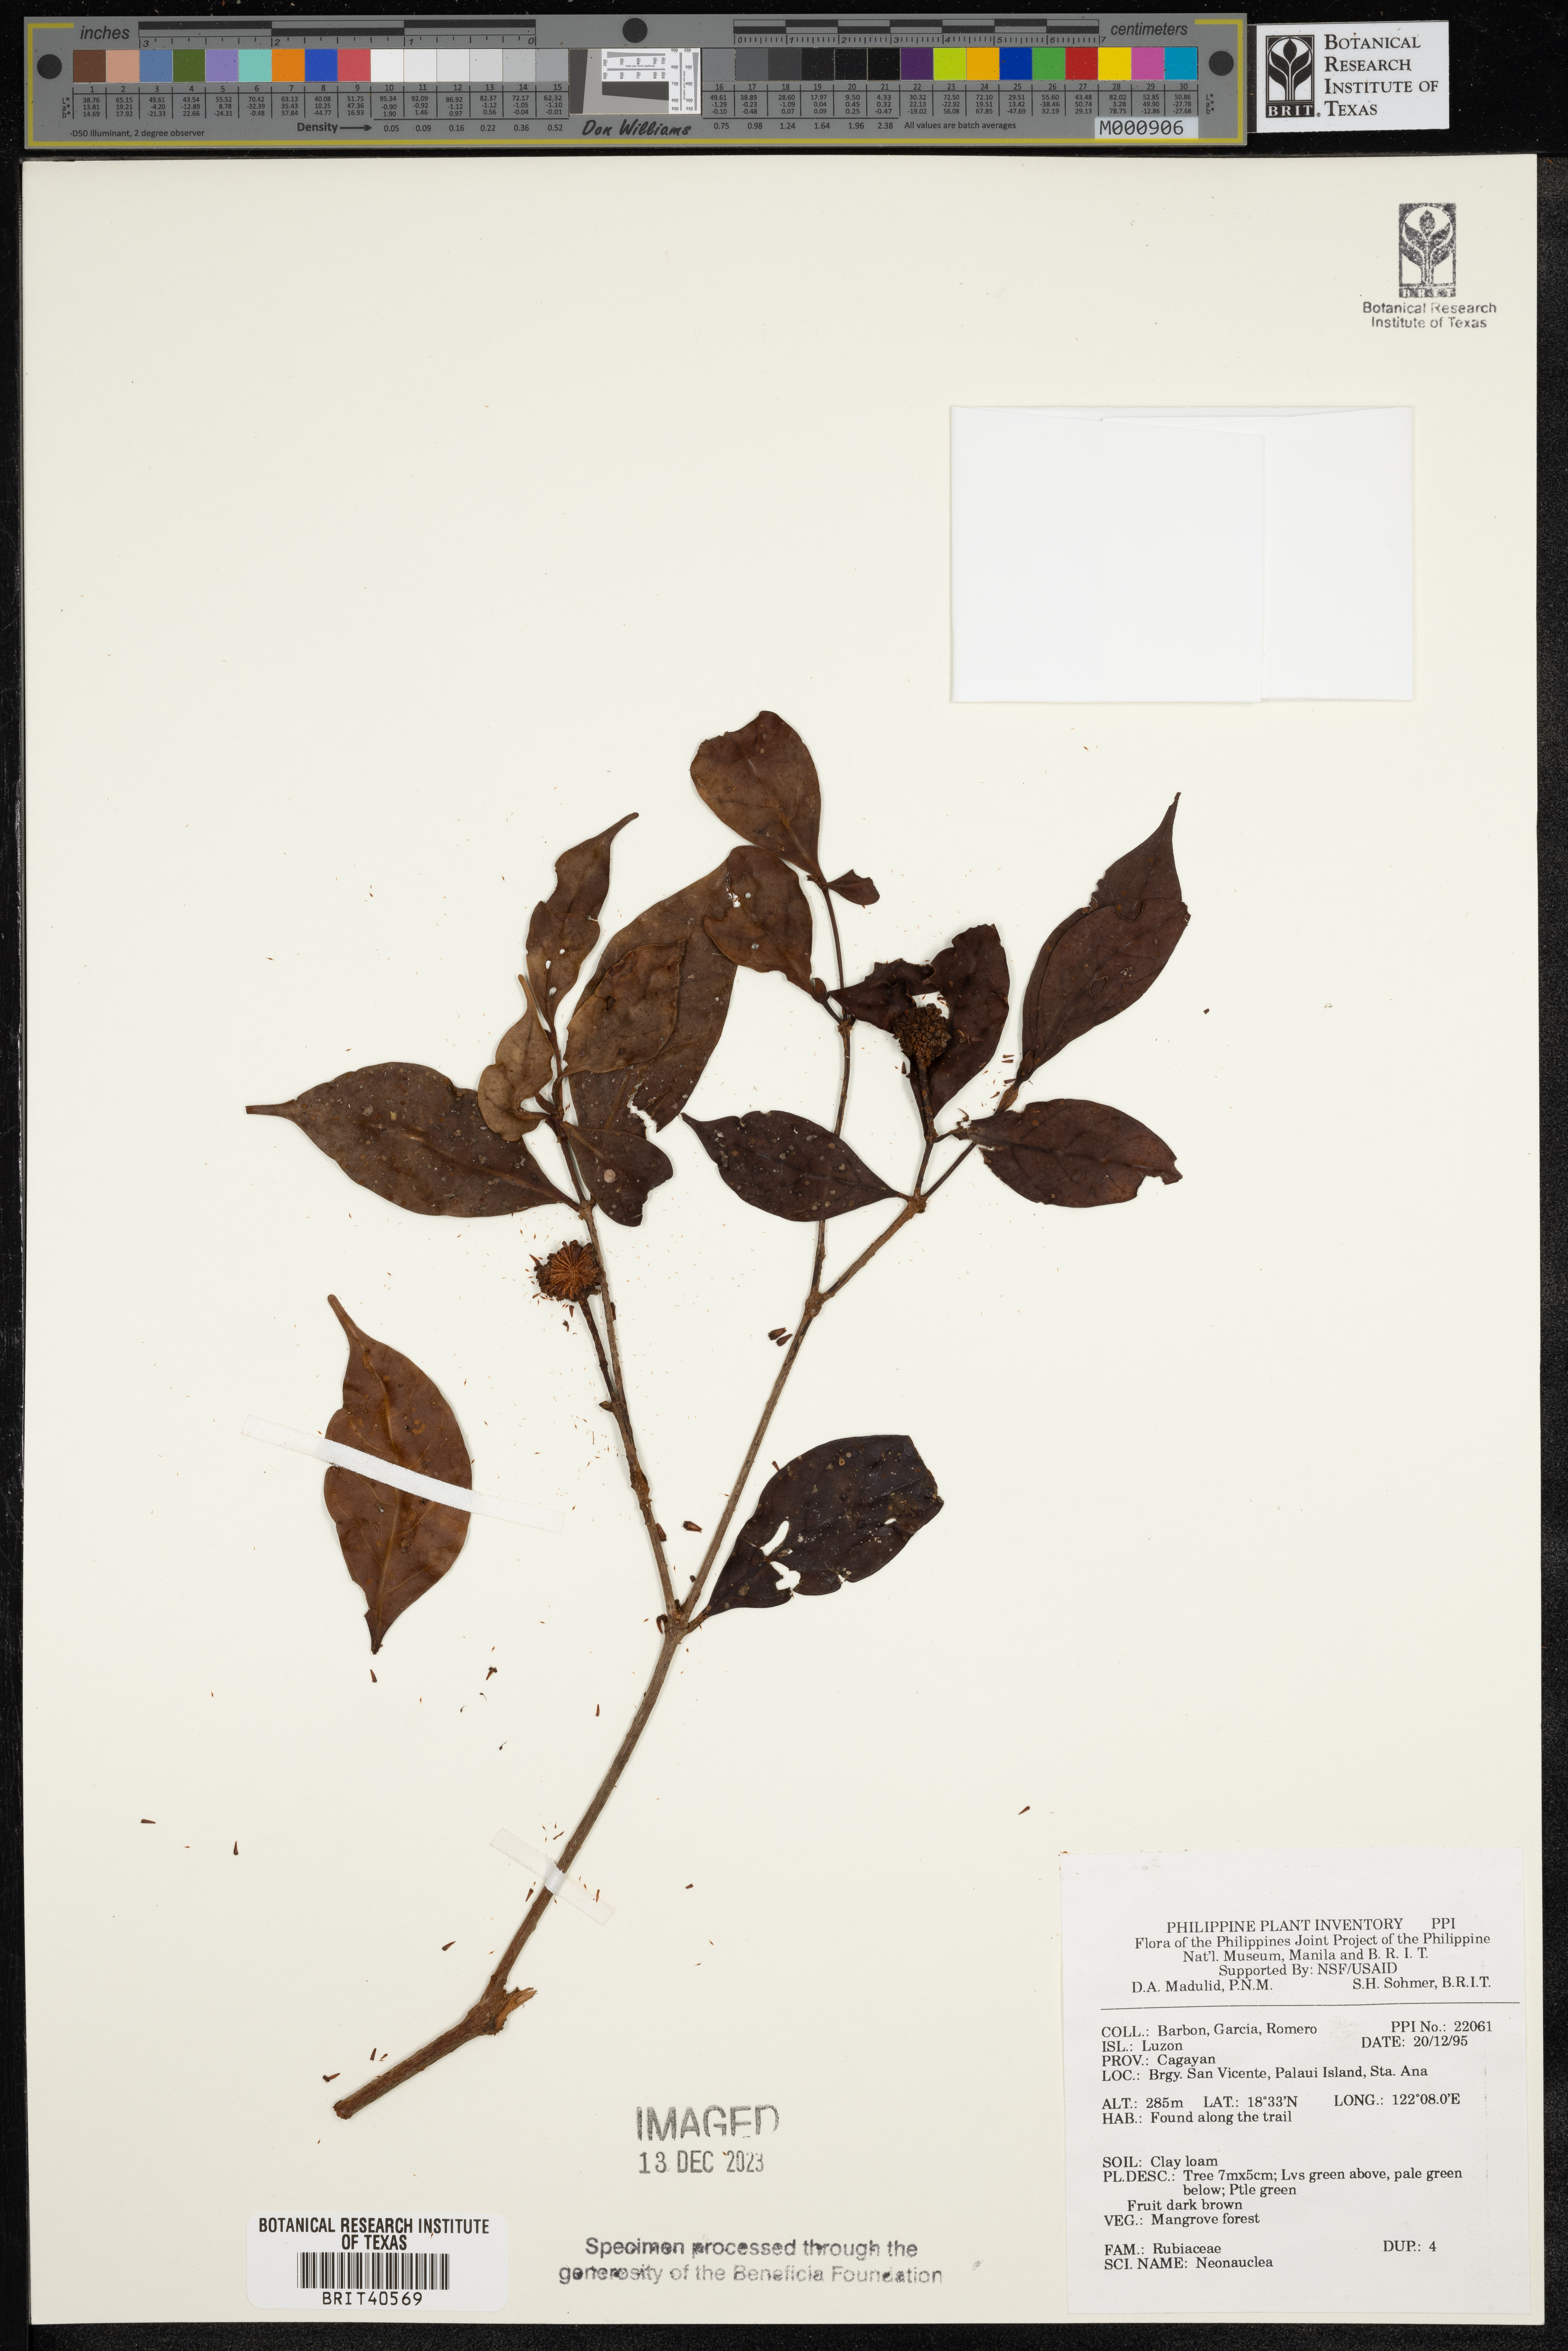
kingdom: Plantae
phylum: Tracheophyta
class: Magnoliopsida
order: Gentianales
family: Rubiaceae
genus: Neonauclea
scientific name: Neonauclea
